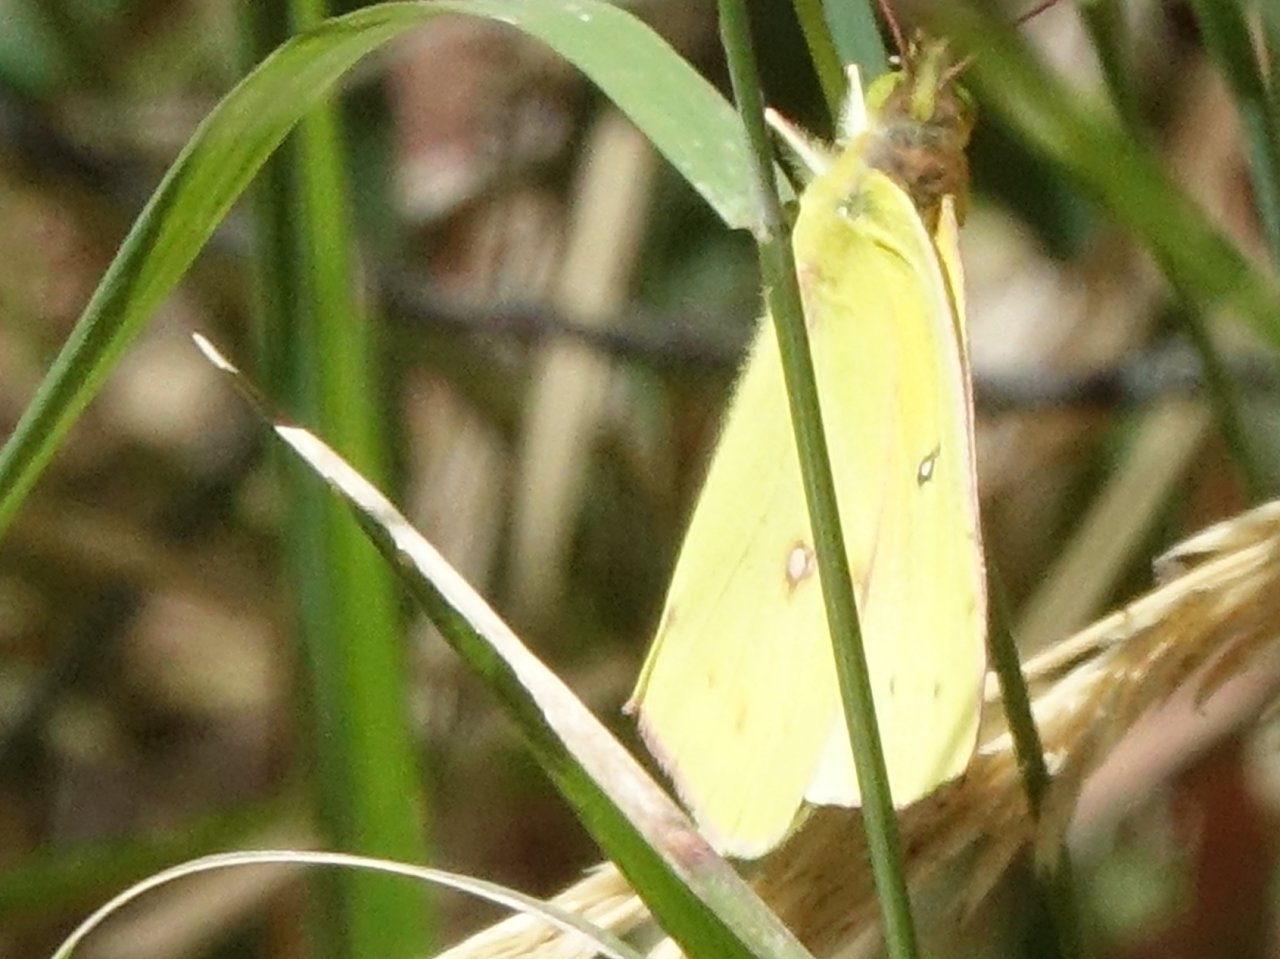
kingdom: Animalia
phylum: Arthropoda
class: Insecta
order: Lepidoptera
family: Pieridae
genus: Colias
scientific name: Colias eurytheme
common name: Orange Sulphur
